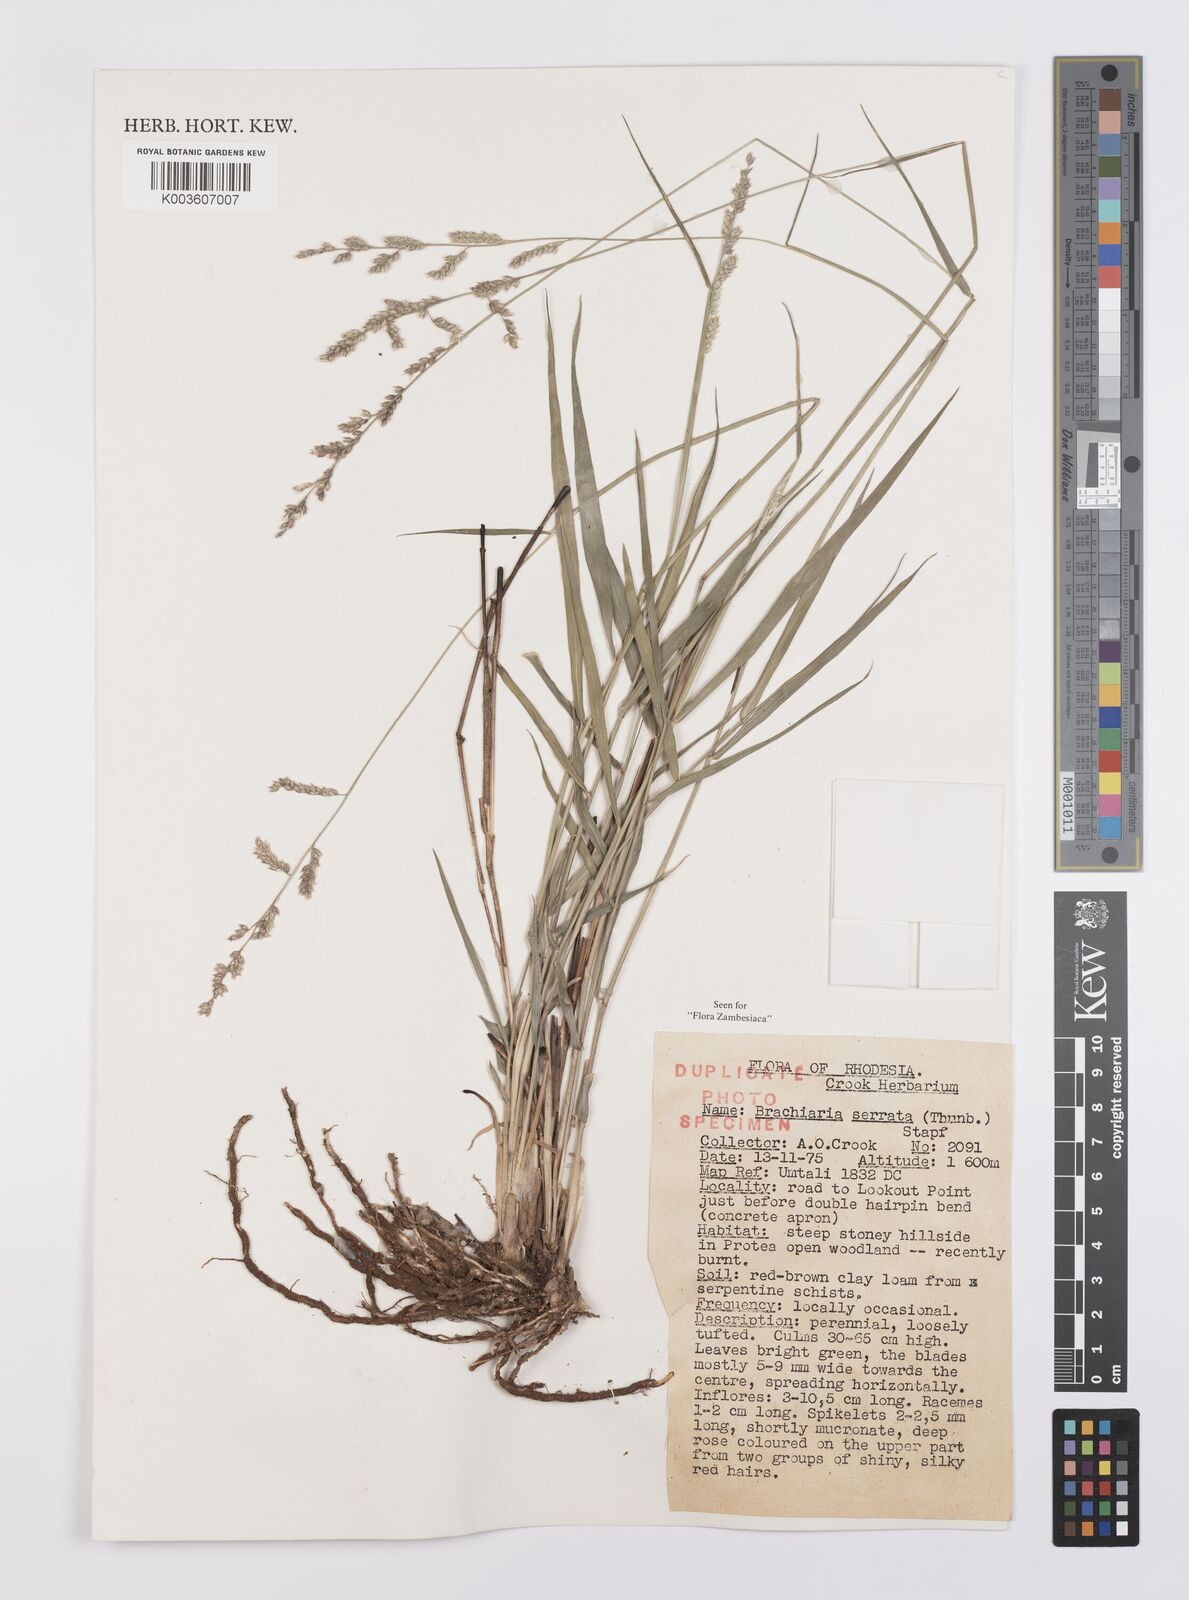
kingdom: Plantae
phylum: Tracheophyta
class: Liliopsida
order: Poales
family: Poaceae
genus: Urochloa
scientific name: Urochloa serrata
